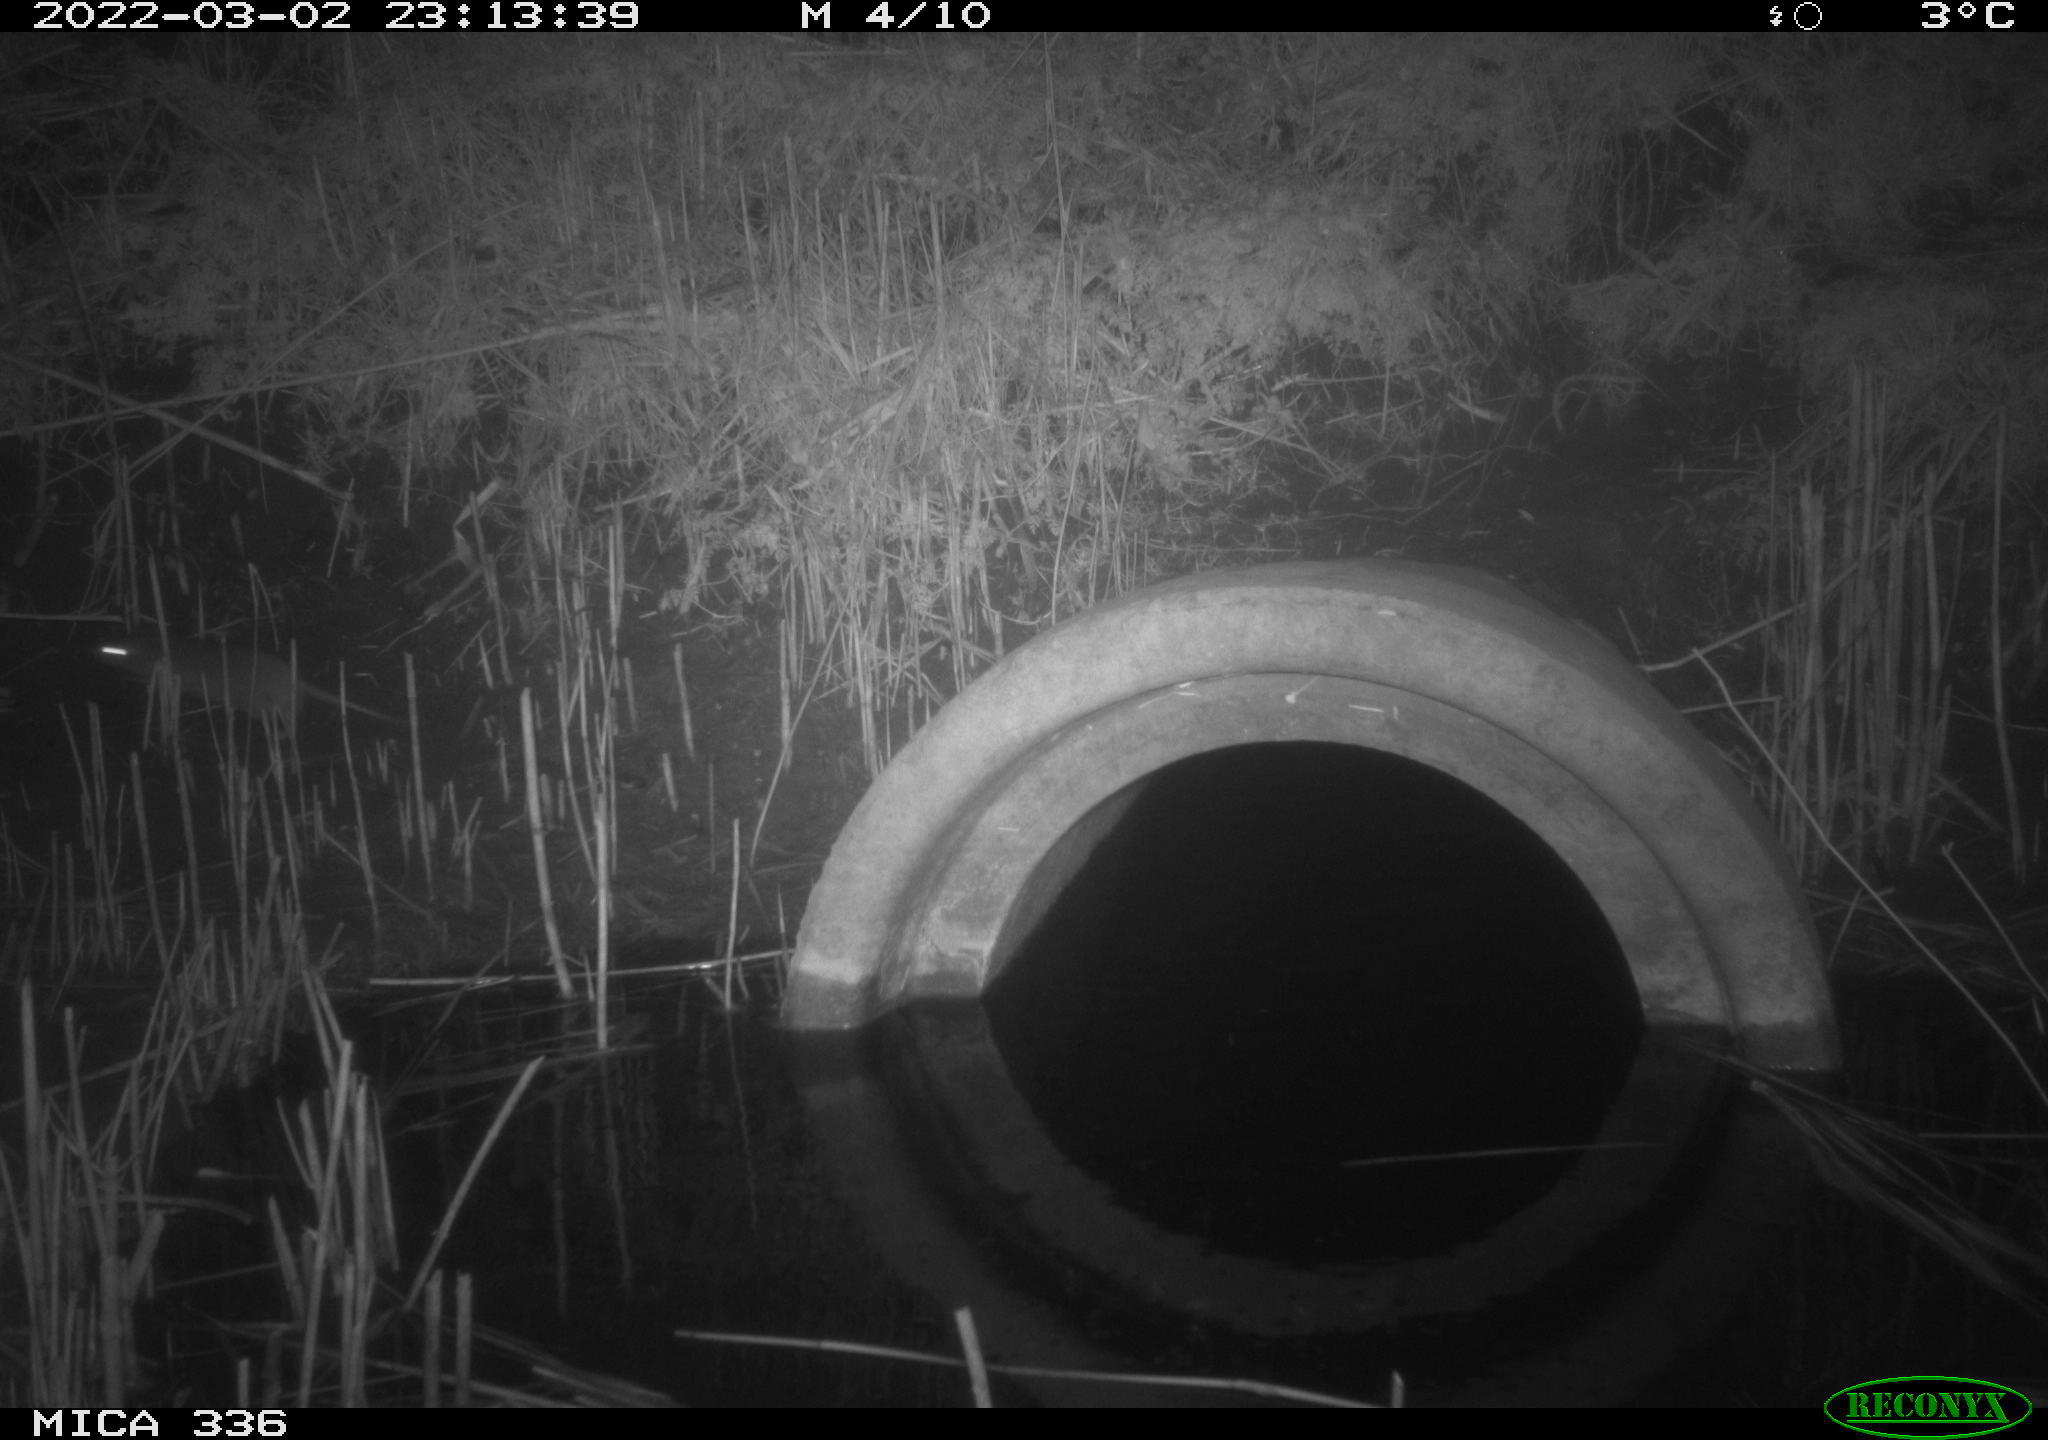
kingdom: Animalia
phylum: Chordata
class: Mammalia
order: Rodentia
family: Muridae
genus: Rattus
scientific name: Rattus norvegicus
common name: Brown rat
